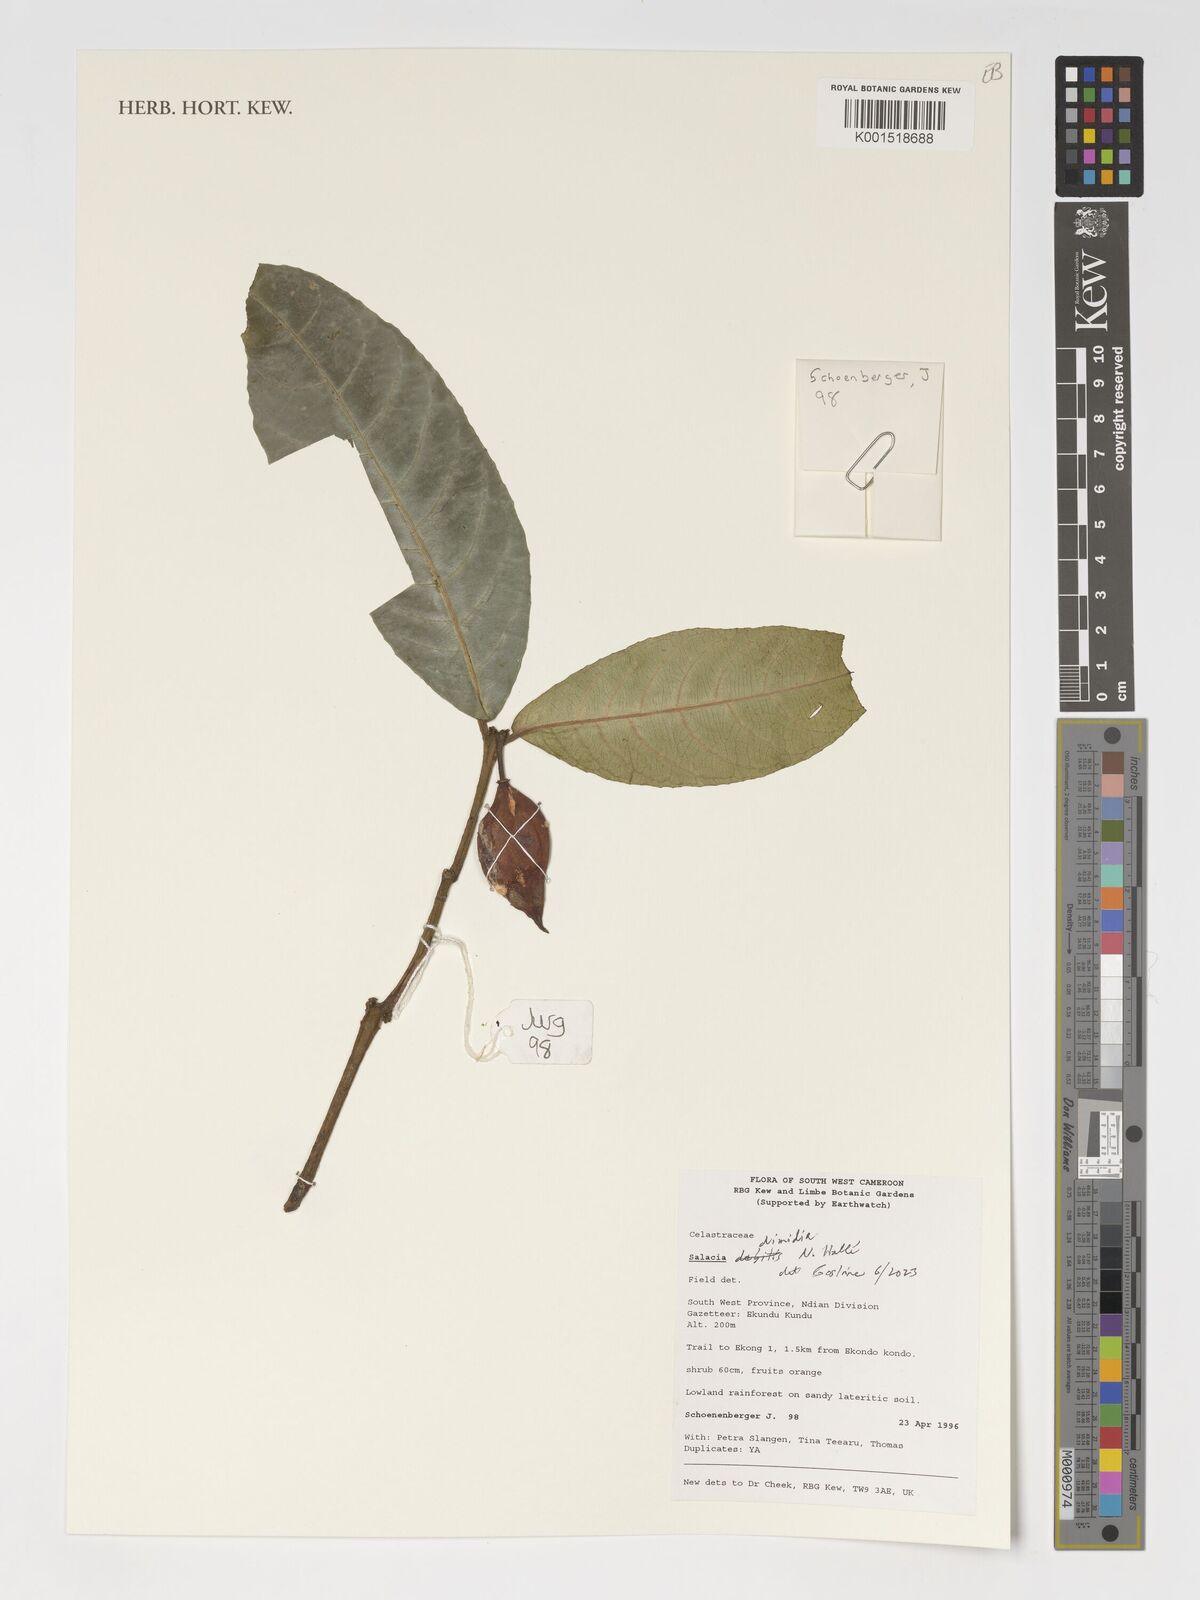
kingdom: Plantae
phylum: Tracheophyta
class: Magnoliopsida
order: Celastrales
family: Celastraceae
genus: Salacia
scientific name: Salacia dimidia
